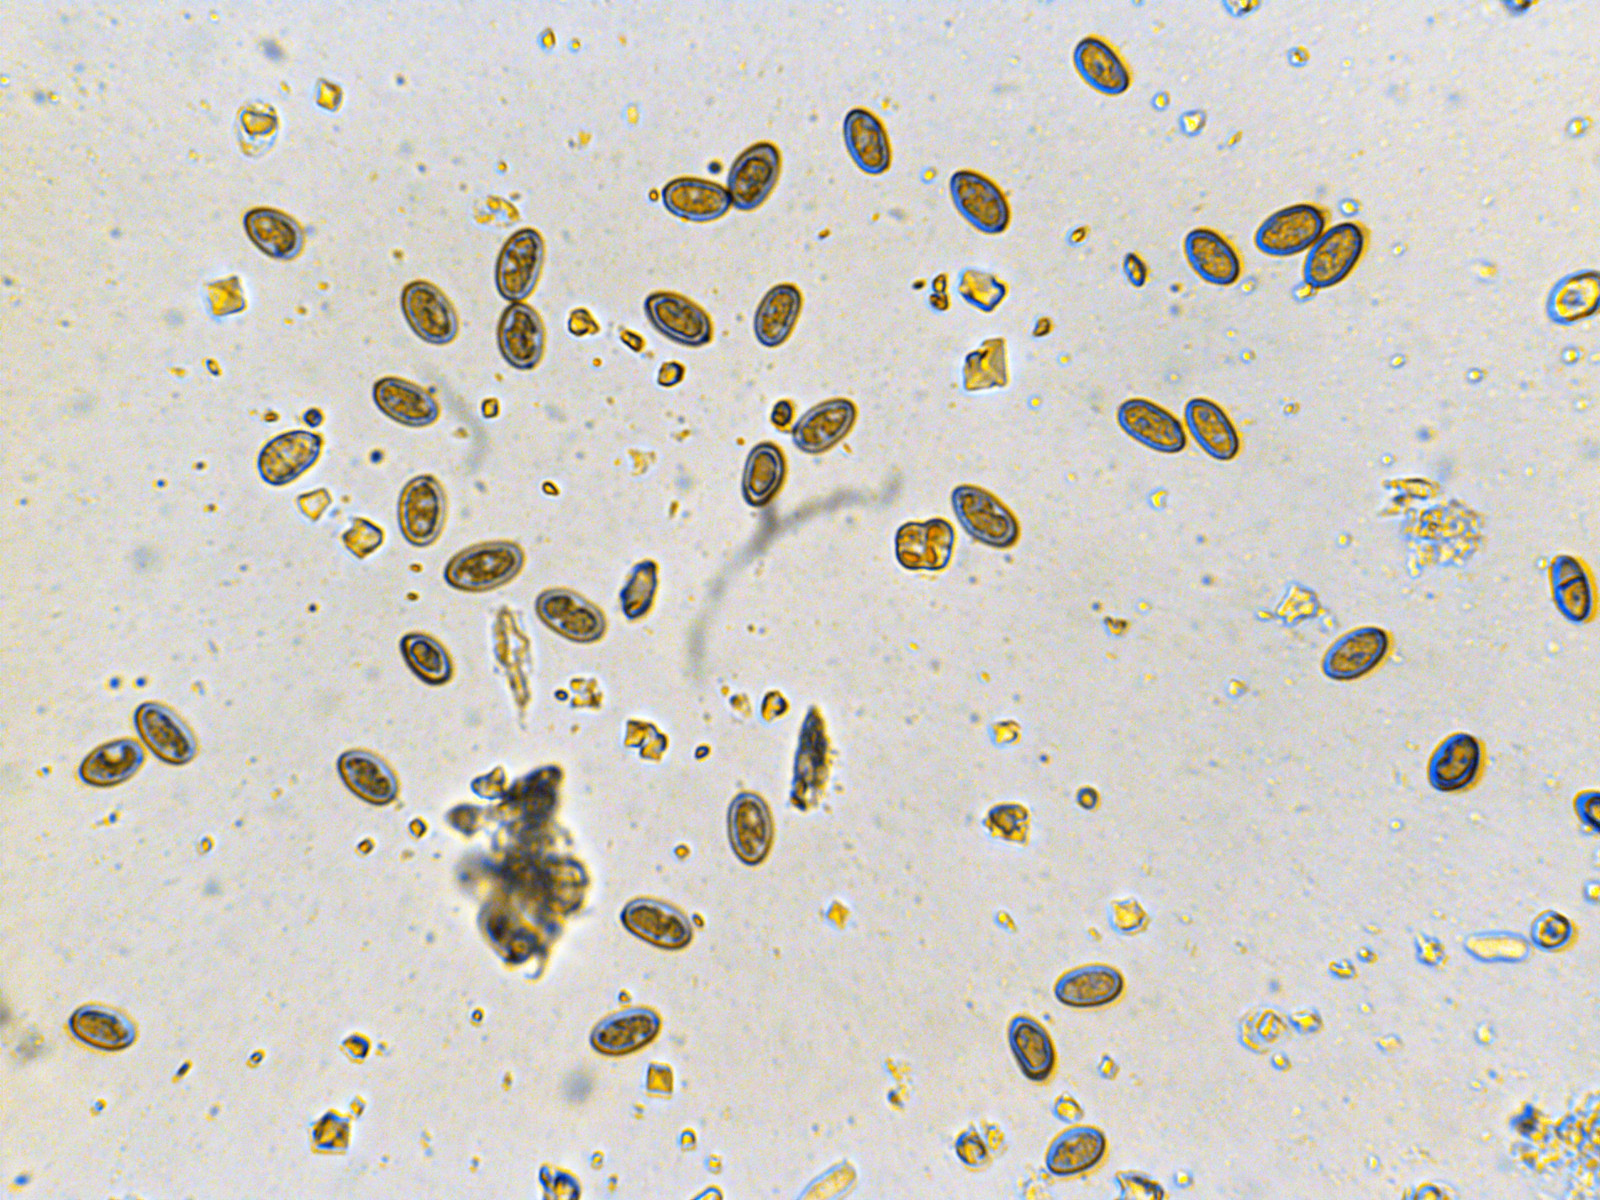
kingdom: Fungi
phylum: Basidiomycota
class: Agaricomycetes
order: Boletales
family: Coniophoraceae
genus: Coniophora
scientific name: Coniophora puteana
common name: gul tømmersvamp
